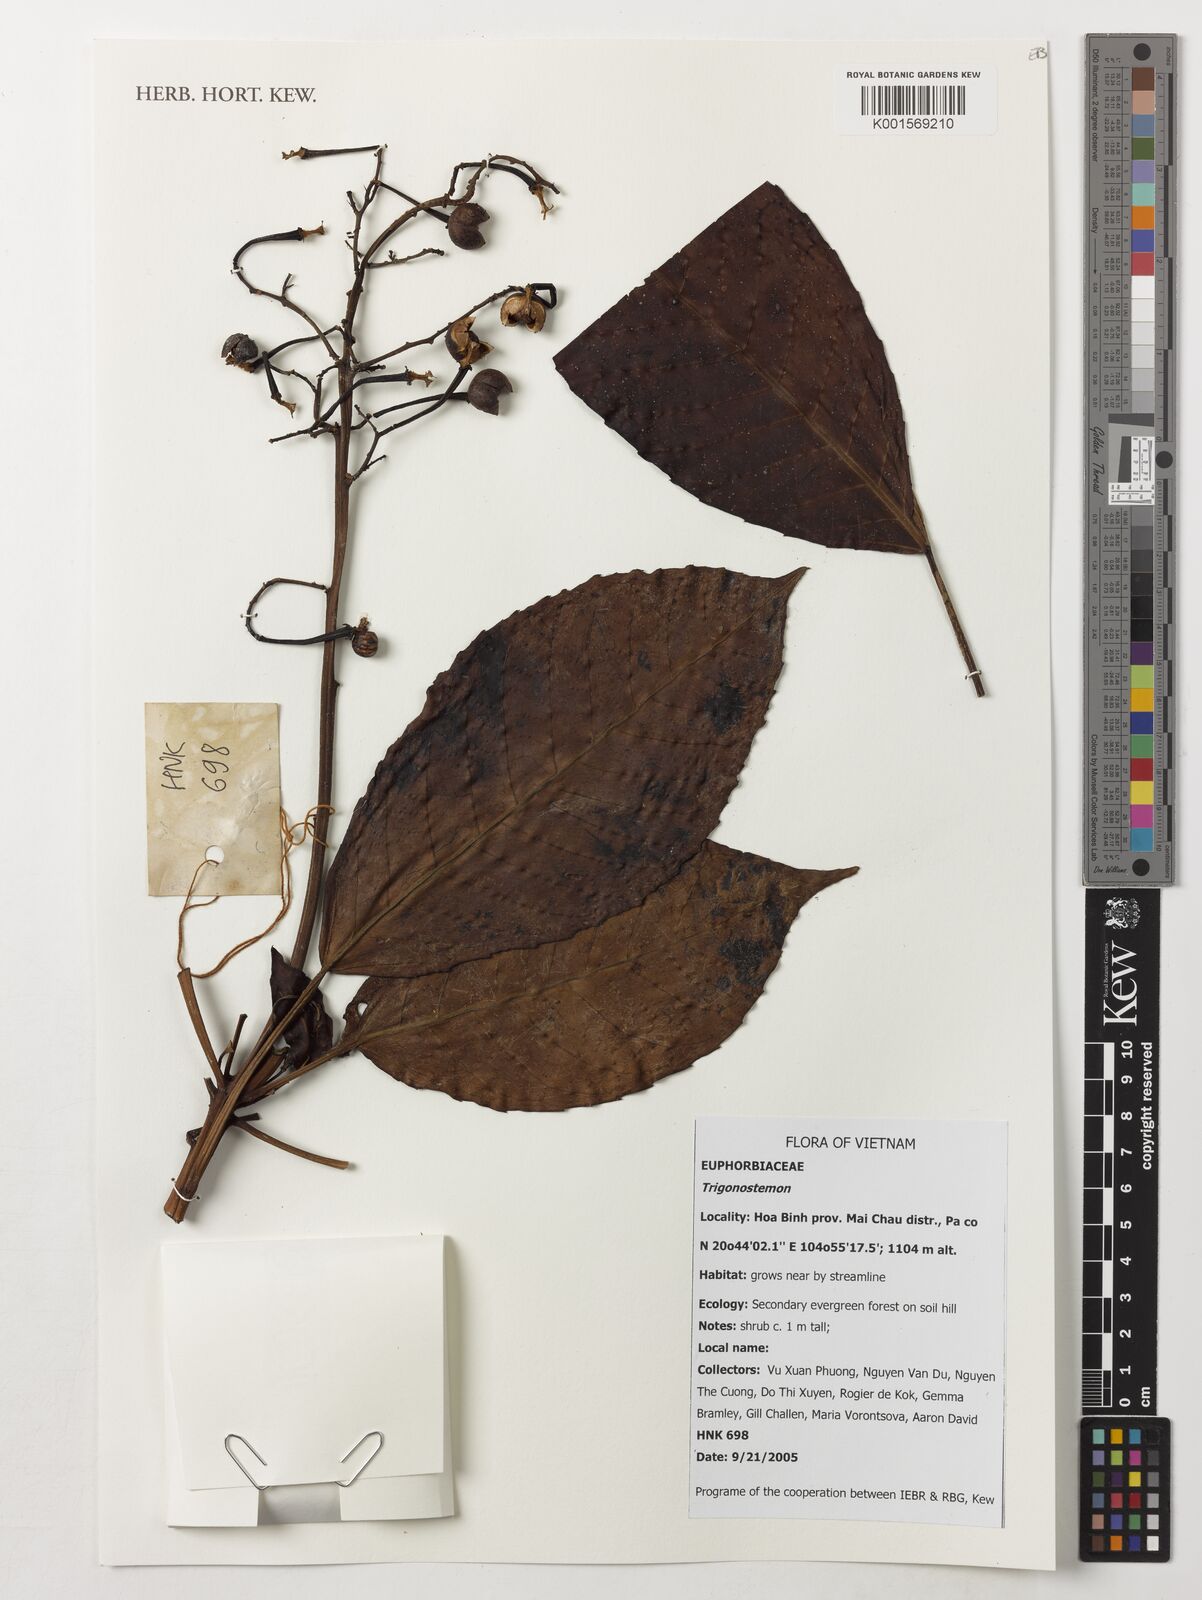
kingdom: Plantae
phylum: Tracheophyta
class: Magnoliopsida
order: Malpighiales
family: Euphorbiaceae
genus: Trigonostemon
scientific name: Trigonostemon
